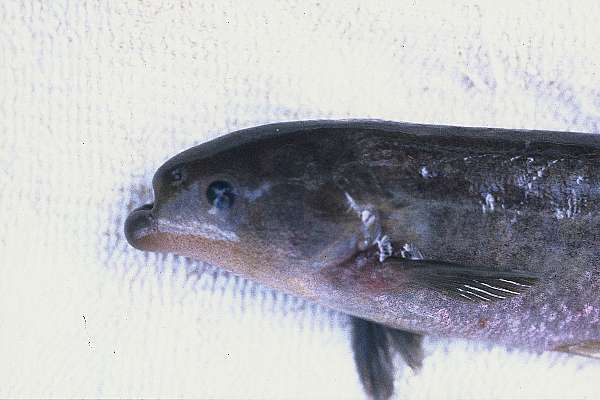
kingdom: Animalia
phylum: Chordata
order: Osteoglossiformes
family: Mormyridae
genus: Marcusenius
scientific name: Marcusenius pongolensis
